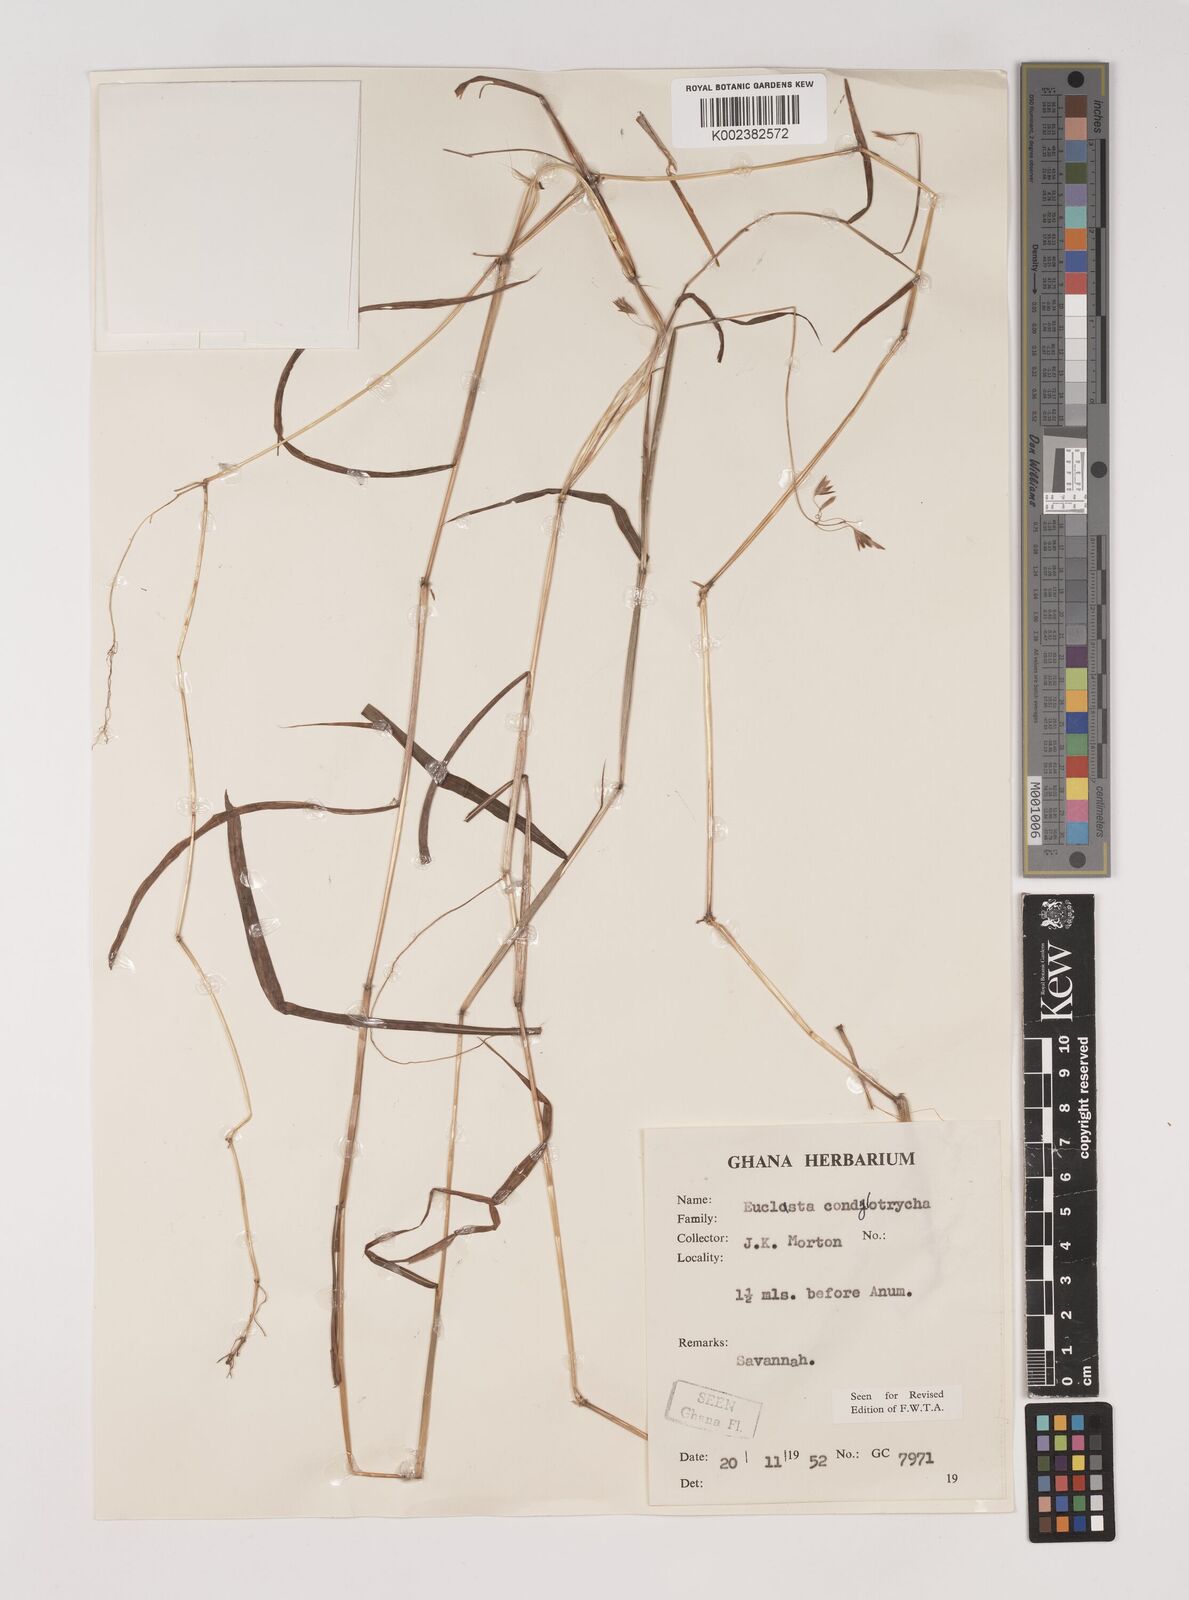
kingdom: Plantae
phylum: Tracheophyta
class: Liliopsida
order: Poales
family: Poaceae
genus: Euclasta
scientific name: Euclasta condylotricha
